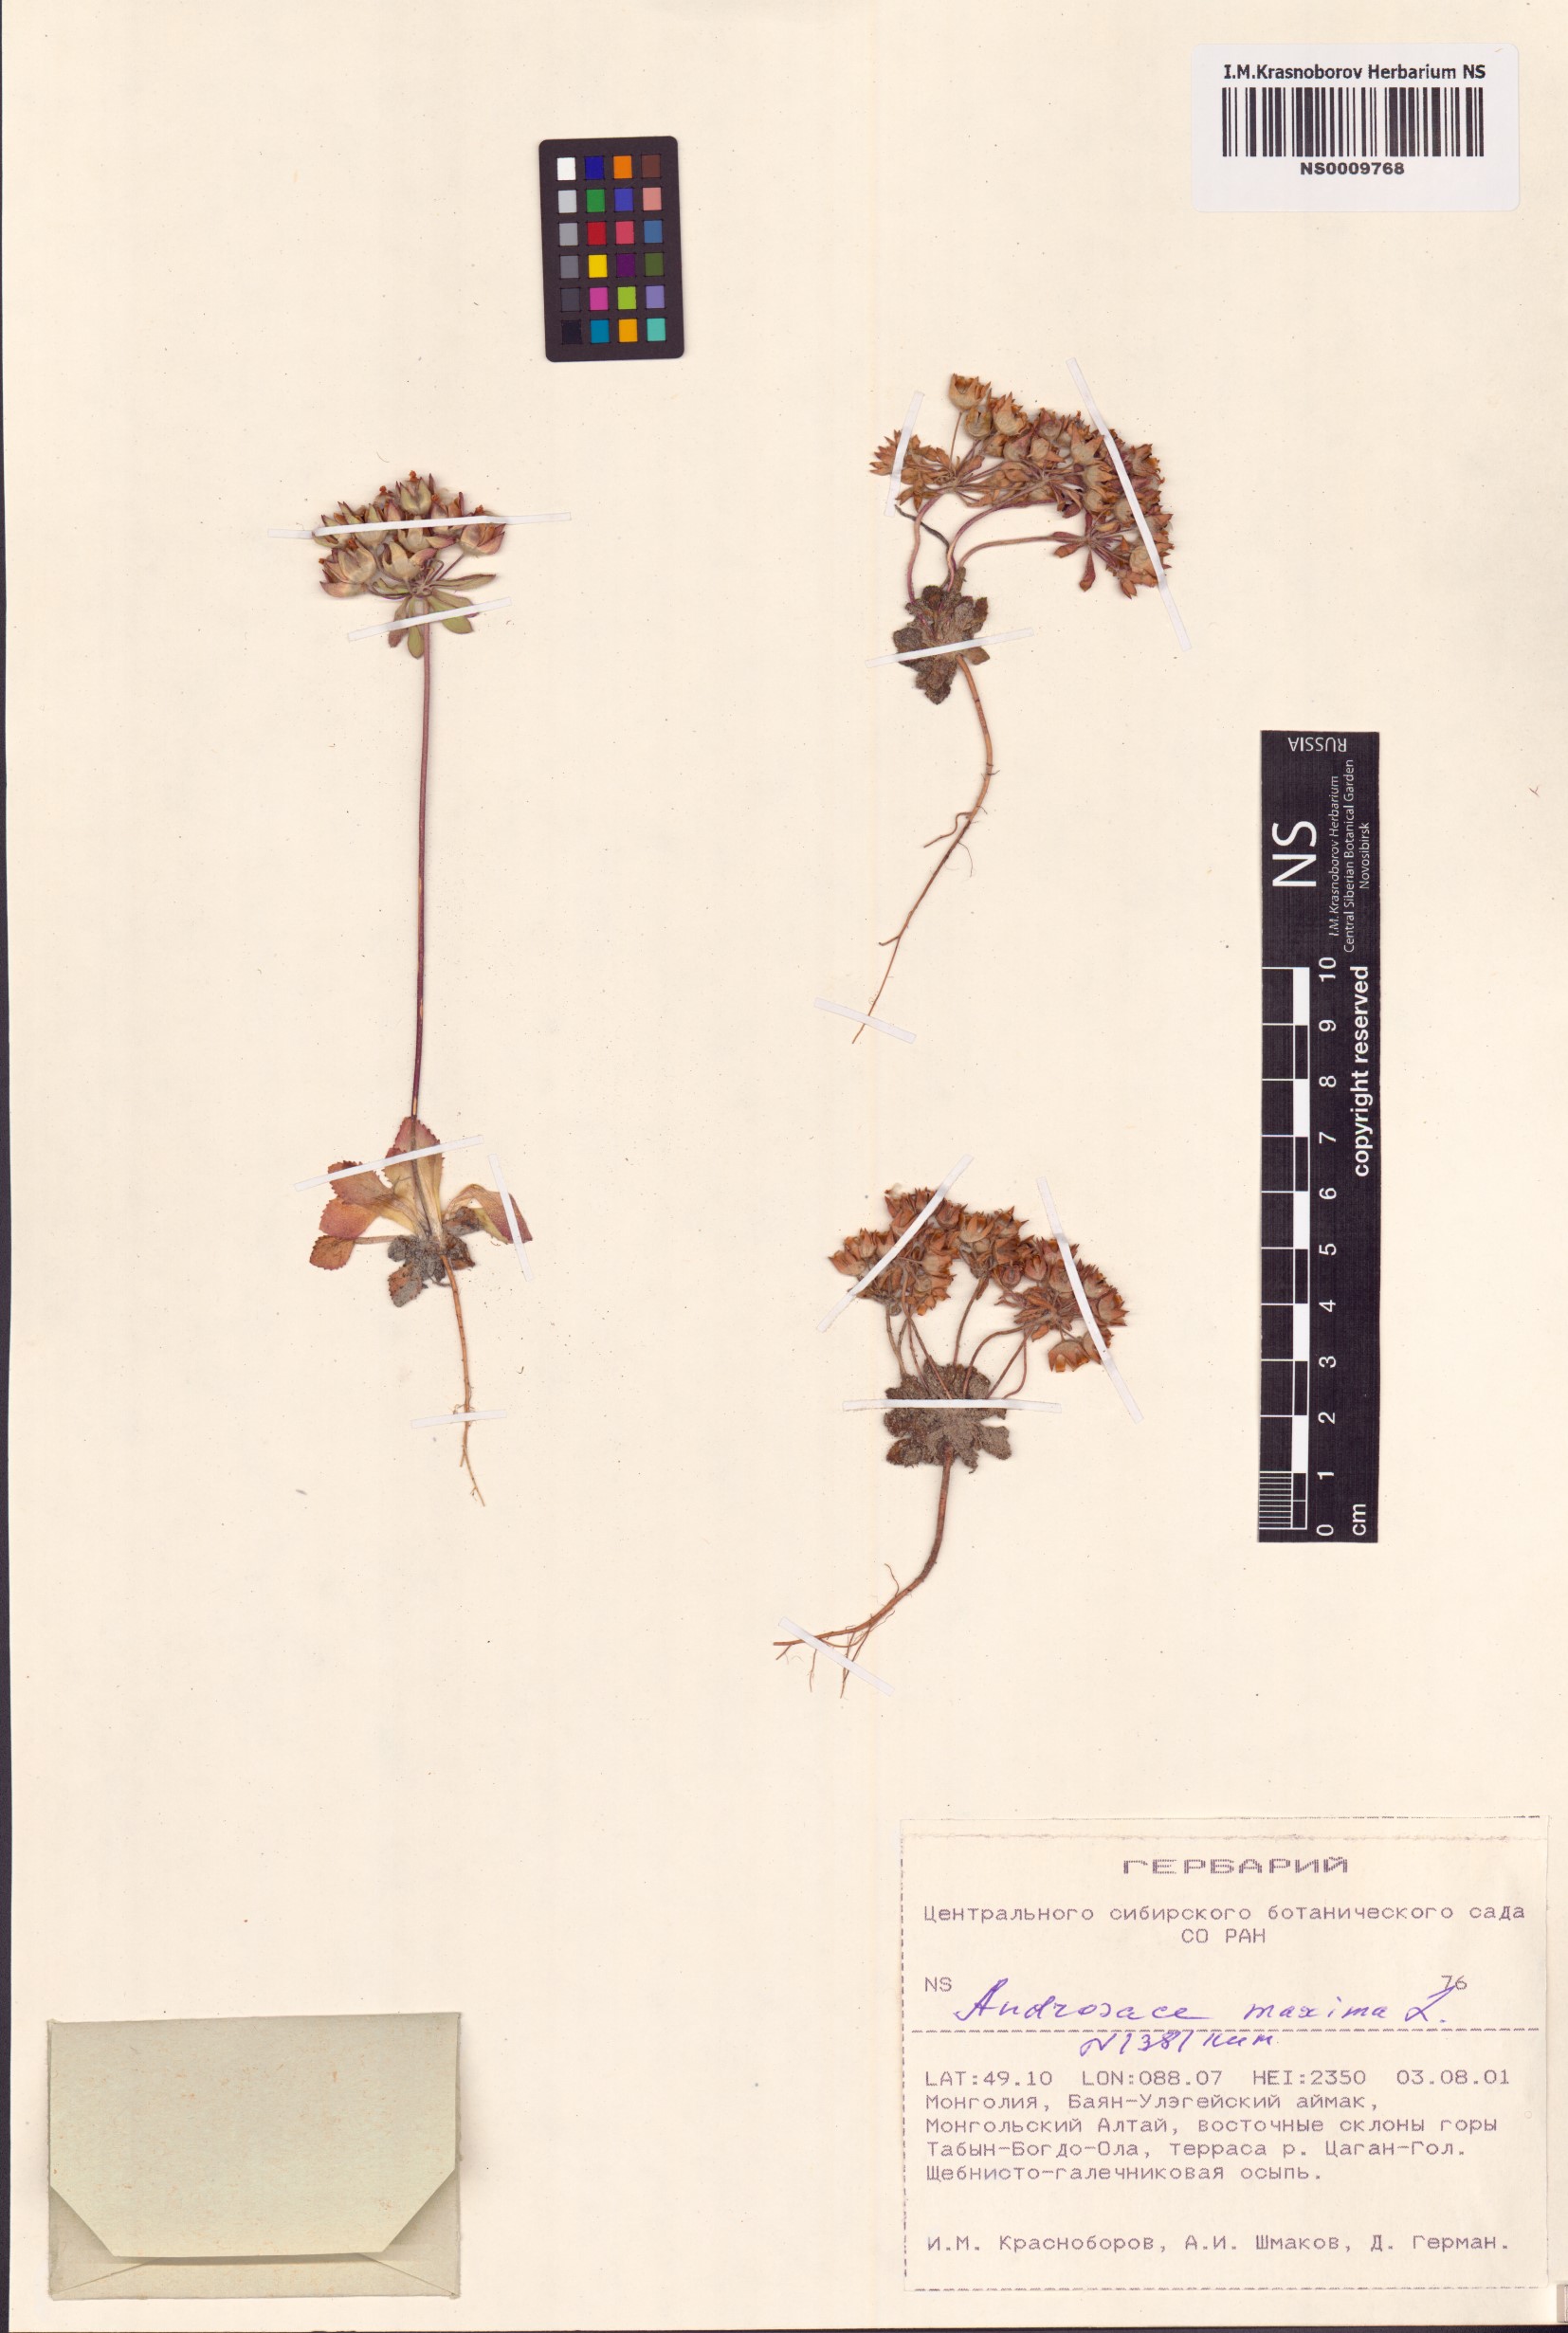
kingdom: Plantae
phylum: Tracheophyta
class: Magnoliopsida
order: Ericales
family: Primulaceae
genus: Androsace
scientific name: Androsace maxima
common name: Annual androsace
